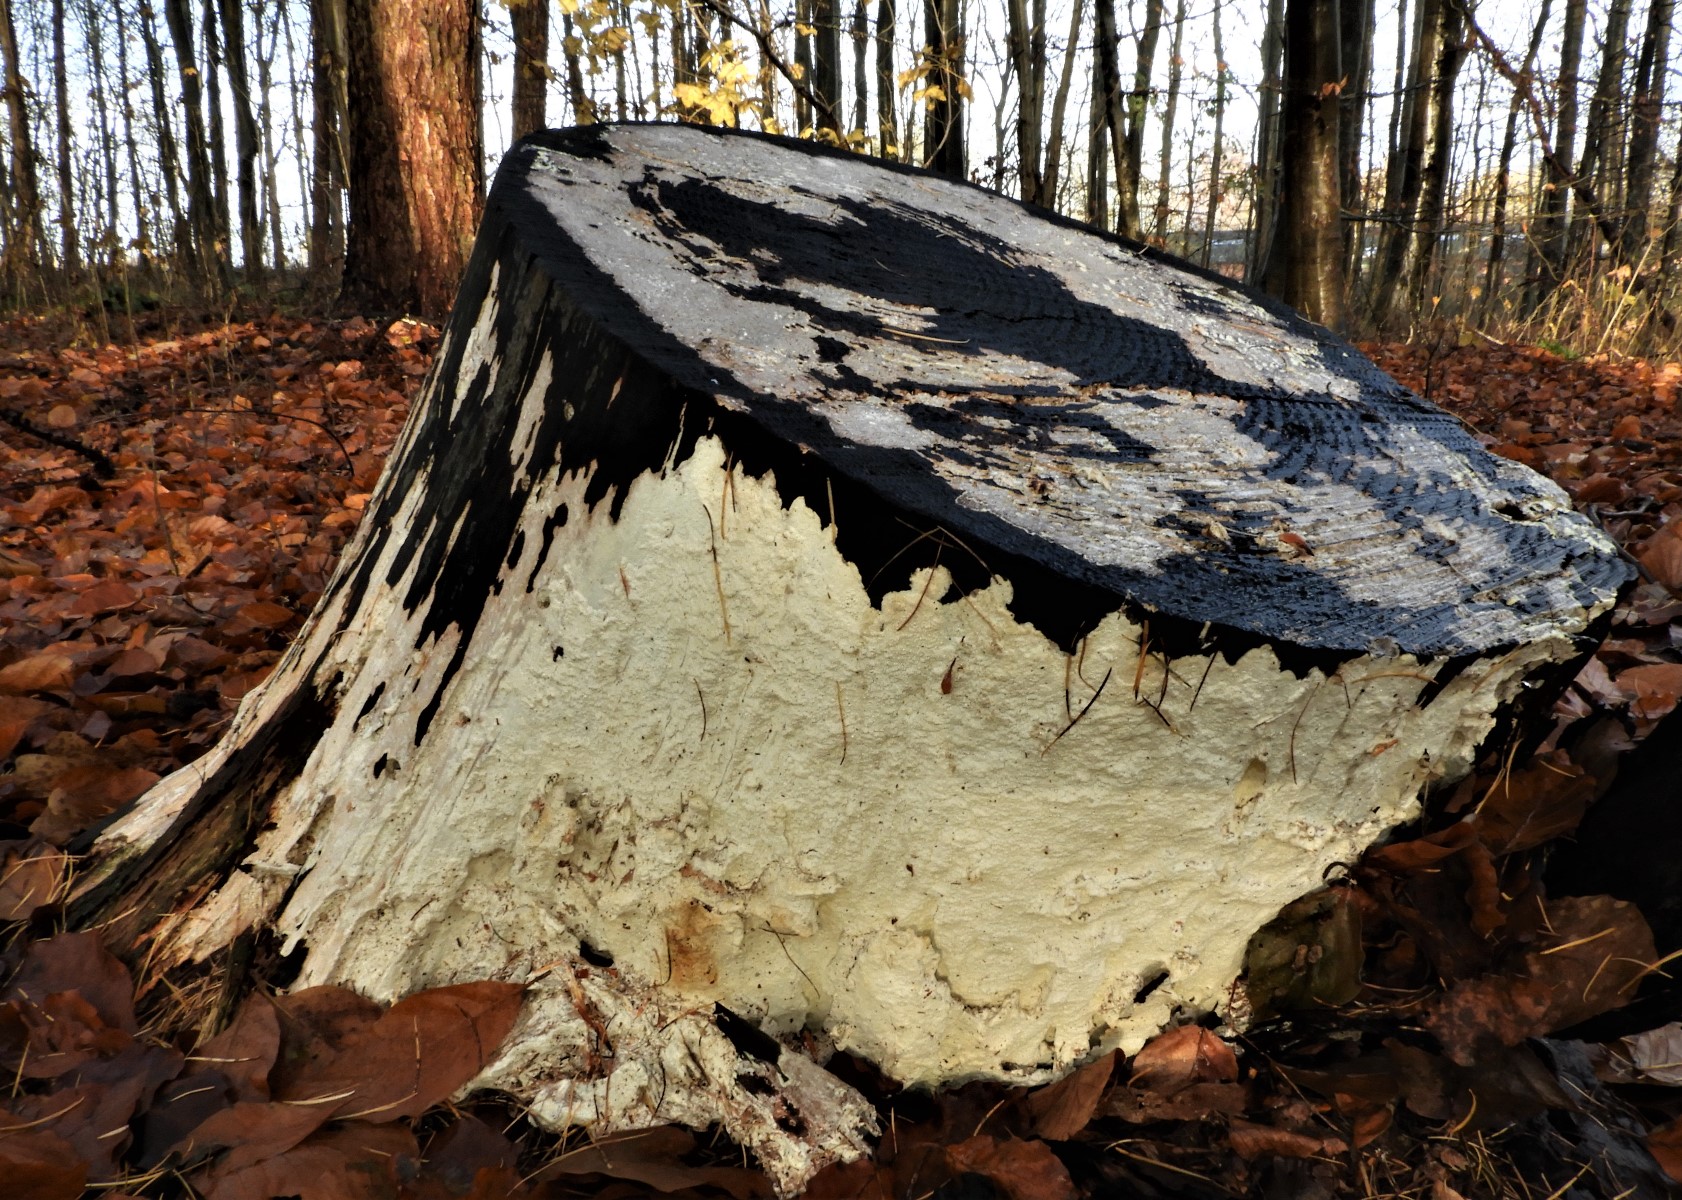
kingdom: Fungi
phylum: Basidiomycota
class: Agaricomycetes
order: Polyporales
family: Fomitopsidaceae
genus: Daedalea
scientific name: Daedalea xantha
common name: gul sejporesvamp
